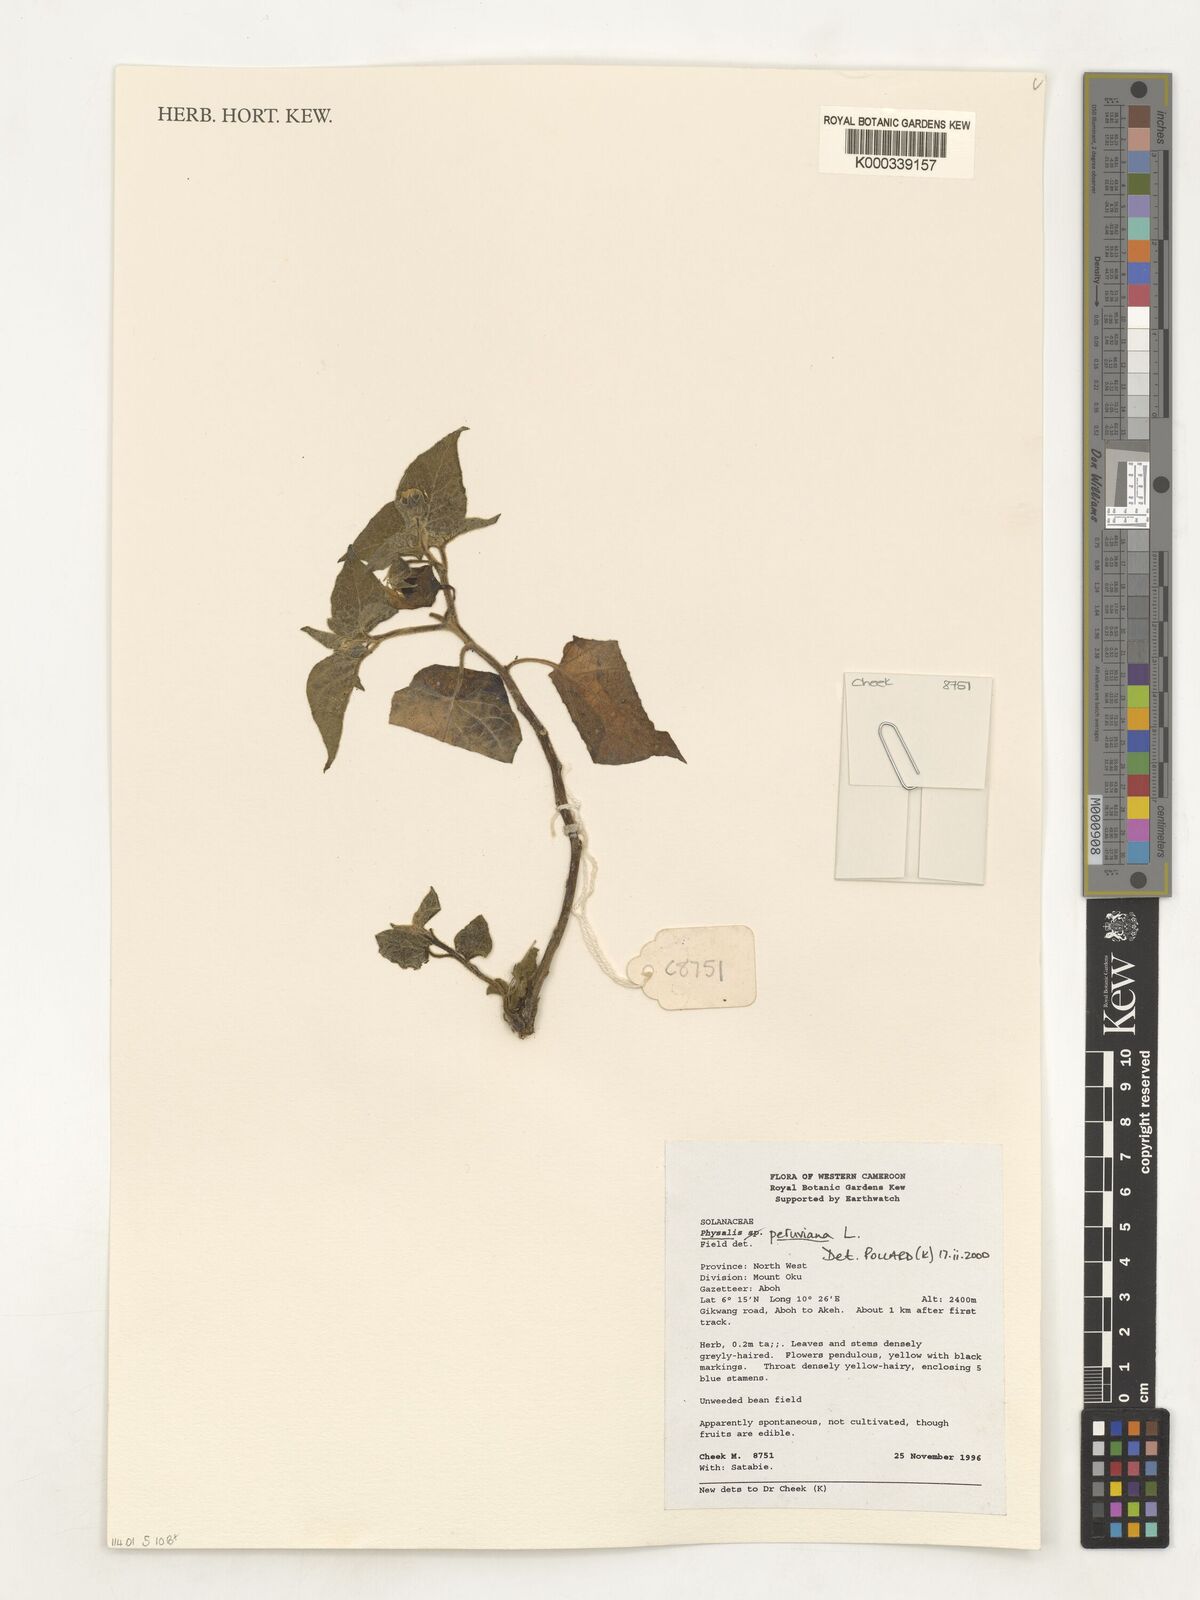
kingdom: Plantae
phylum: Tracheophyta
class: Magnoliopsida
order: Solanales
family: Solanaceae
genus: Physalis
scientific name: Physalis peruviana
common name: Cape-gooseberry
